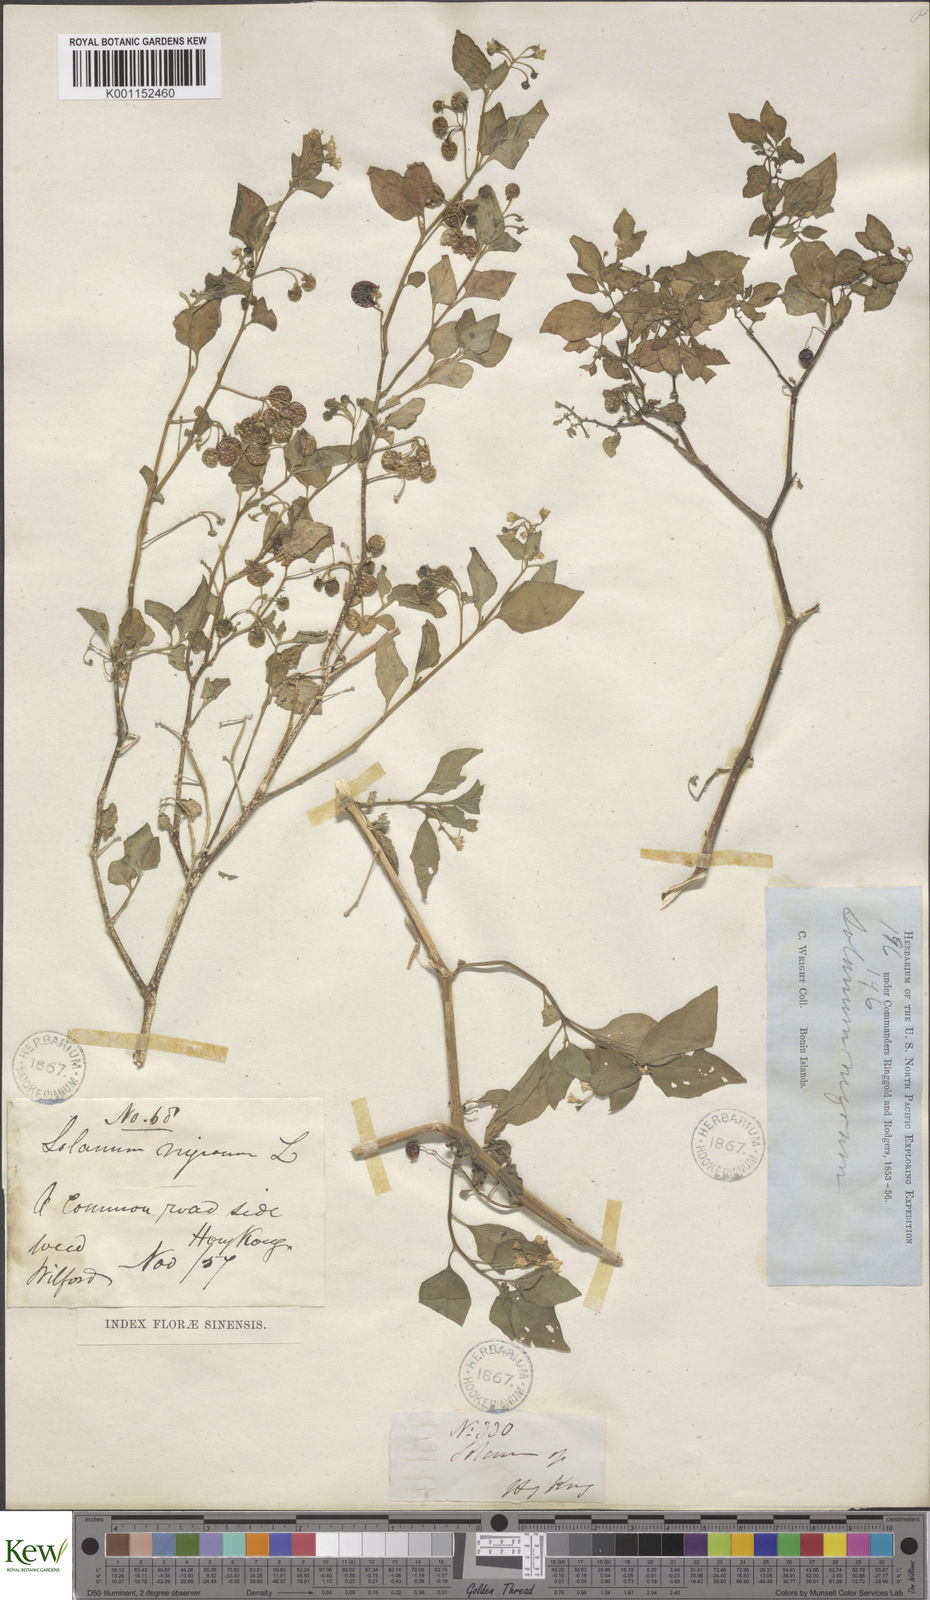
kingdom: Plantae
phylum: Tracheophyta
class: Magnoliopsida
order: Solanales
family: Solanaceae
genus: Solanum
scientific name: Solanum nigrum
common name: Black nightshade
